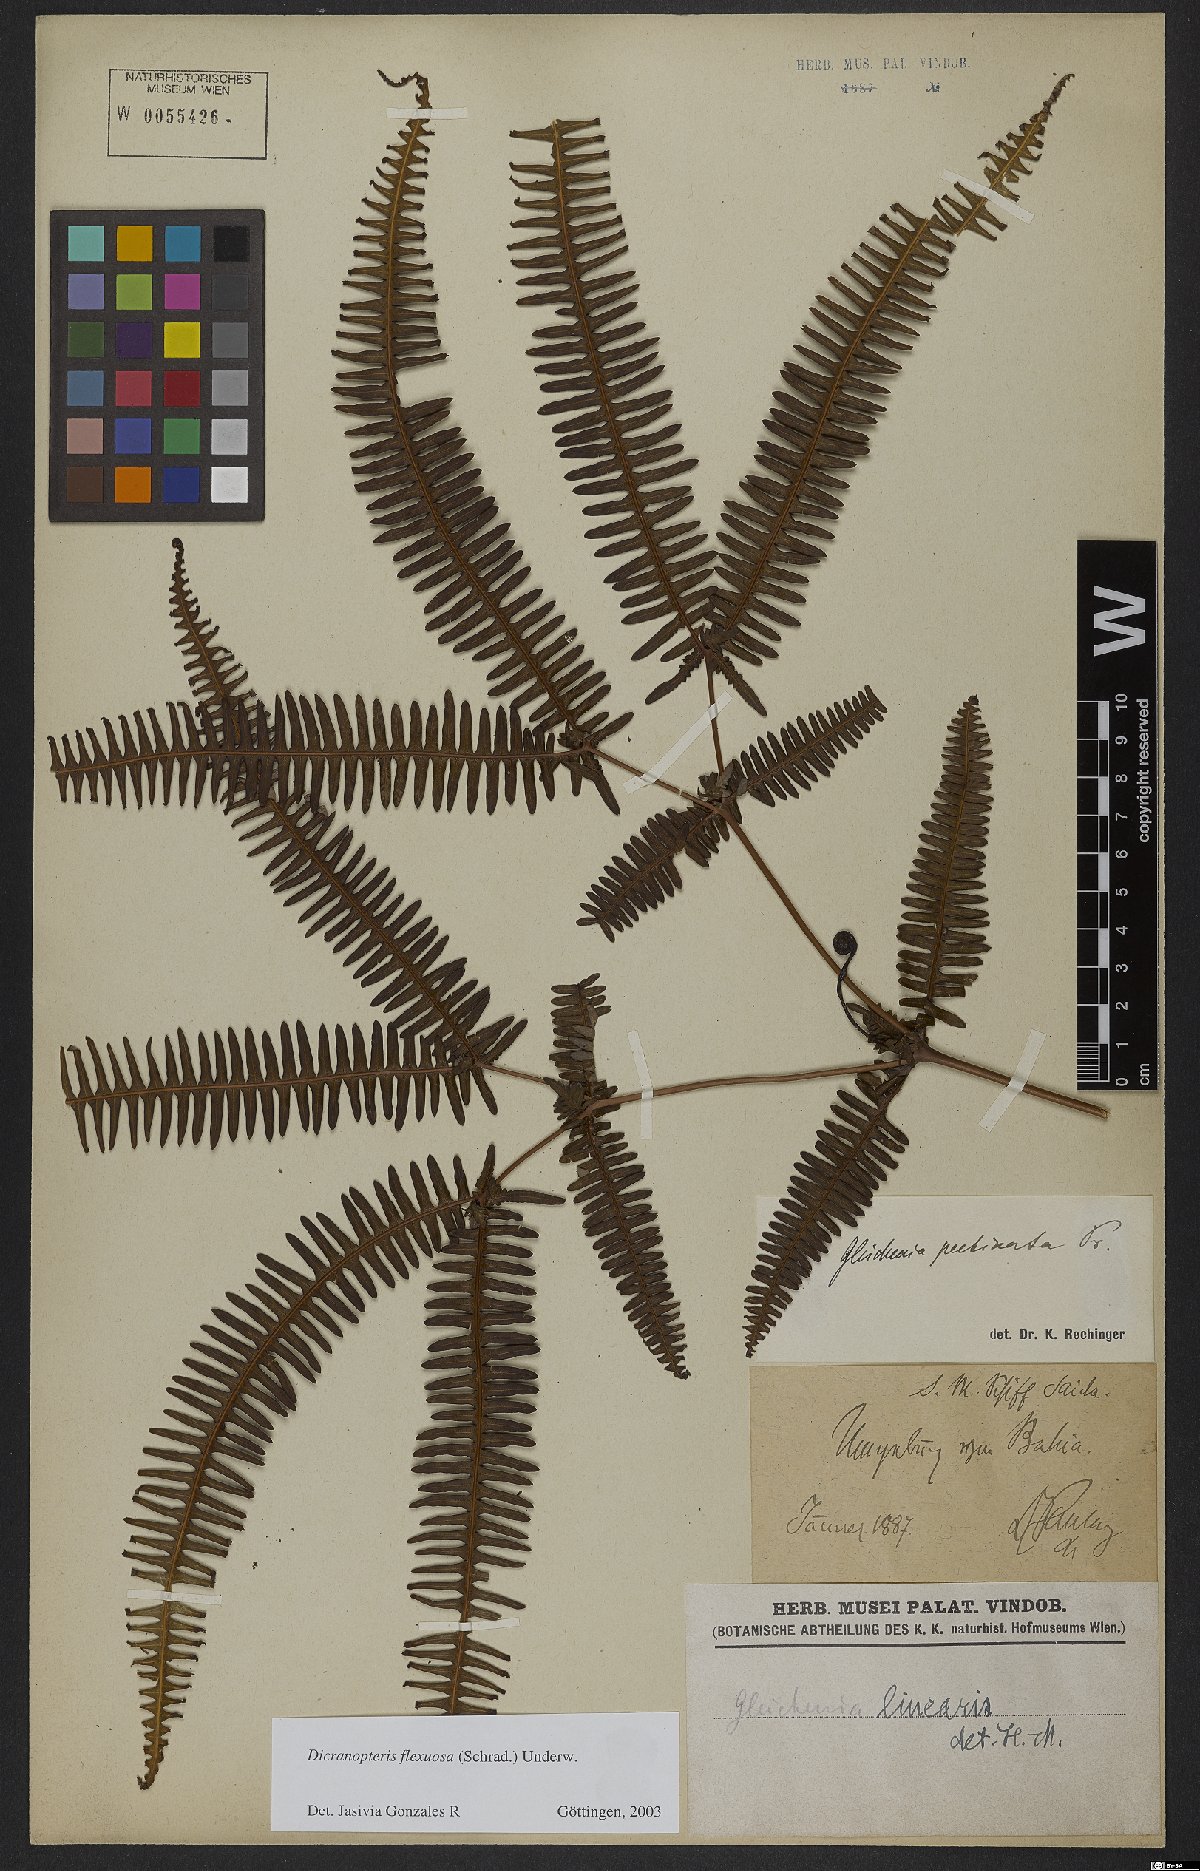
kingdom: Plantae
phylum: Tracheophyta
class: Polypodiopsida
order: Gleicheniales
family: Gleicheniaceae
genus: Dicranopteris
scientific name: Dicranopteris flexuosa
